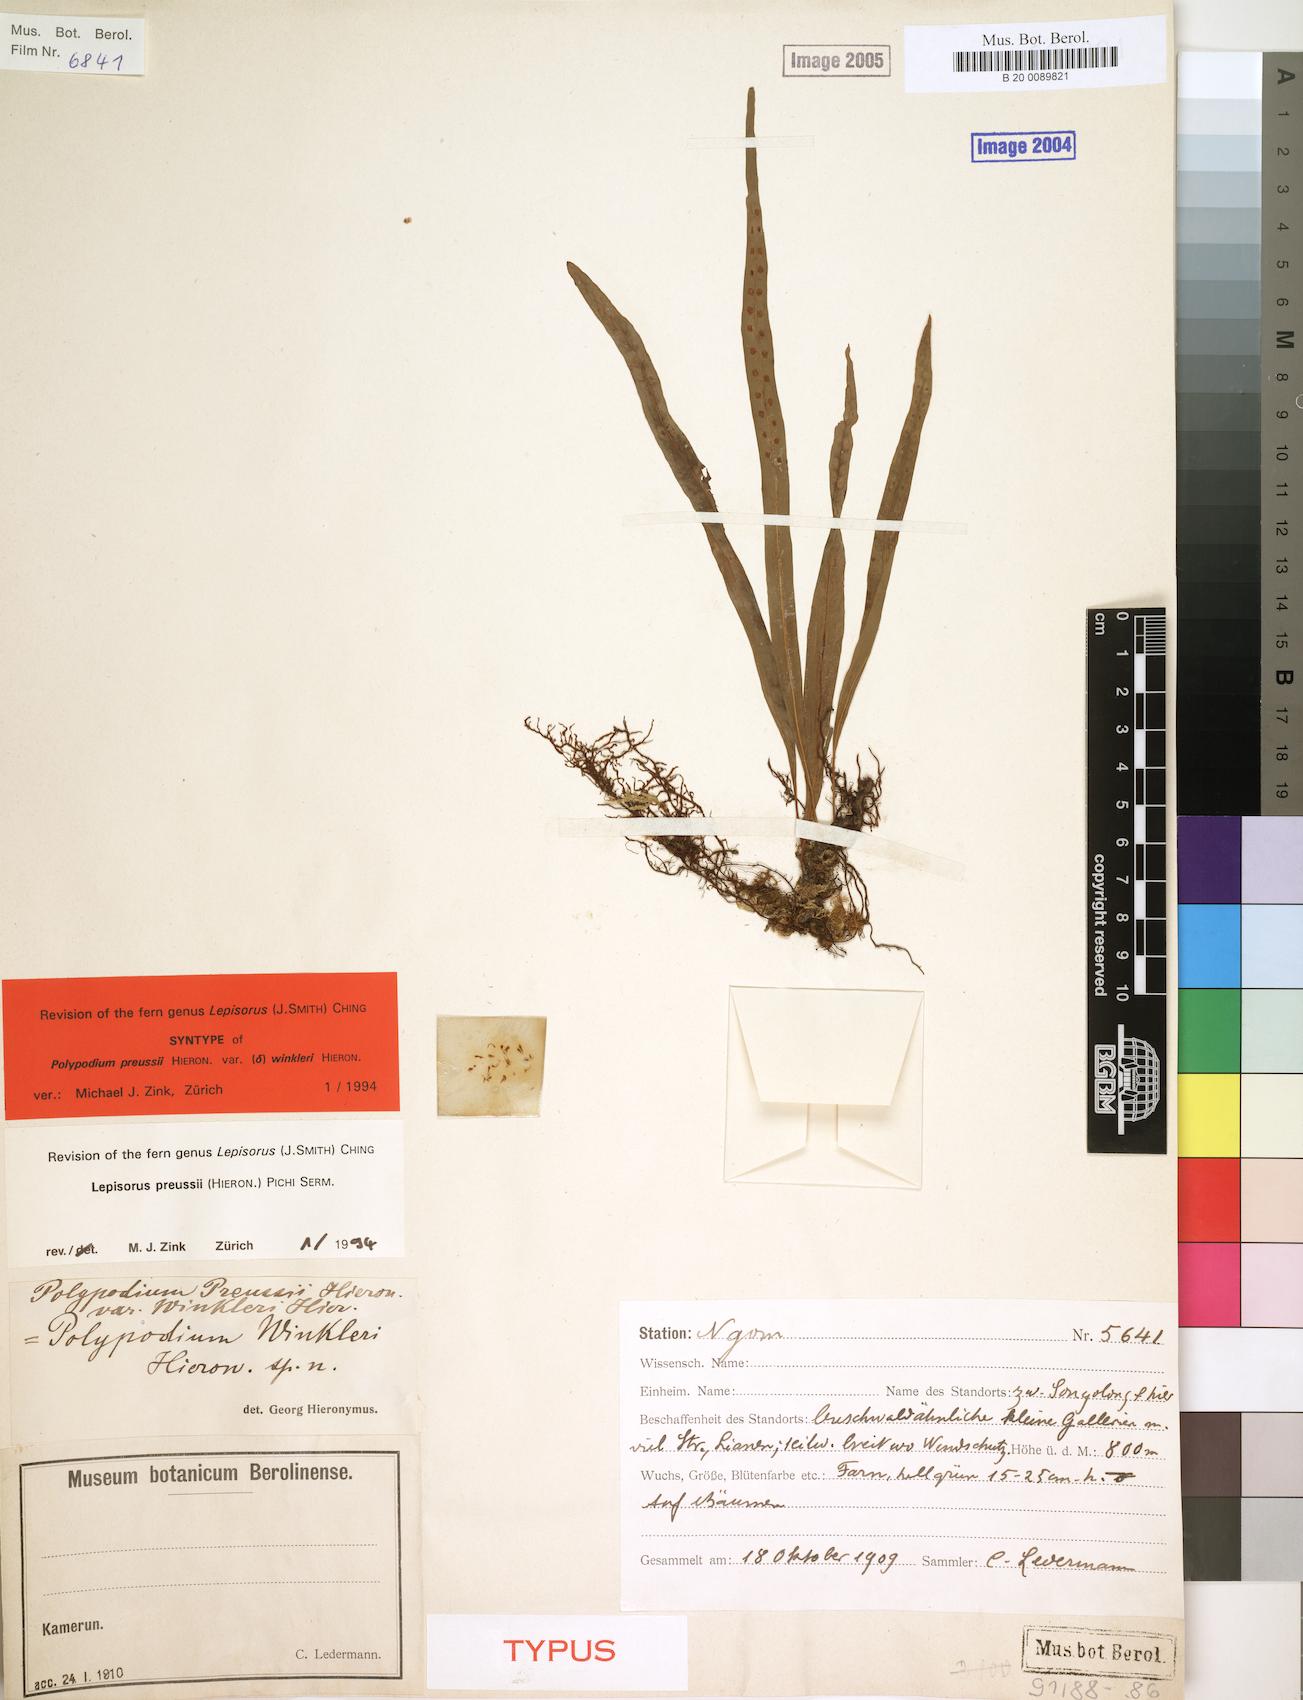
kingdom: Plantae
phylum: Tracheophyta
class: Polypodiopsida
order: Polypodiales
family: Polypodiaceae
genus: Lepisorus
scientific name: Lepisorus excavatus
